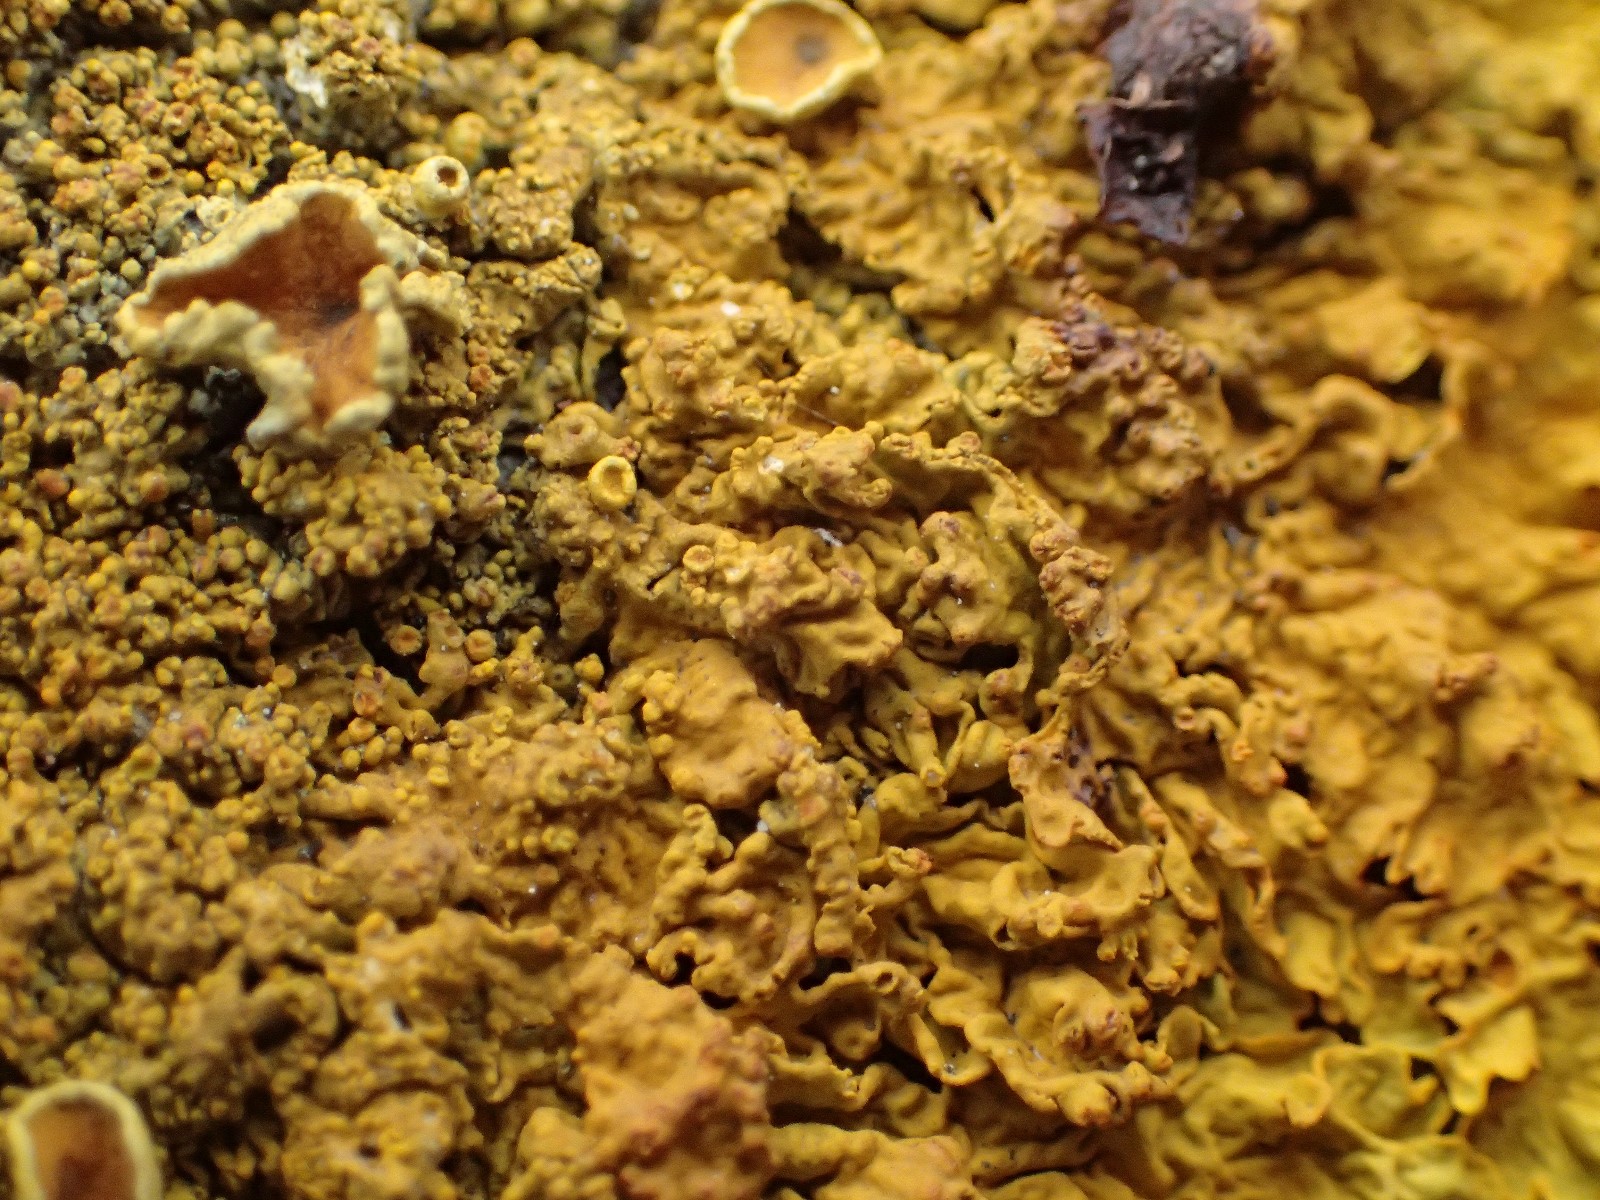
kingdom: Fungi
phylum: Ascomycota
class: Lecanoromycetes
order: Teloschistales
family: Teloschistaceae
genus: Xanthoria
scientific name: Xanthoria calcicola
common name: vortet væggelav
